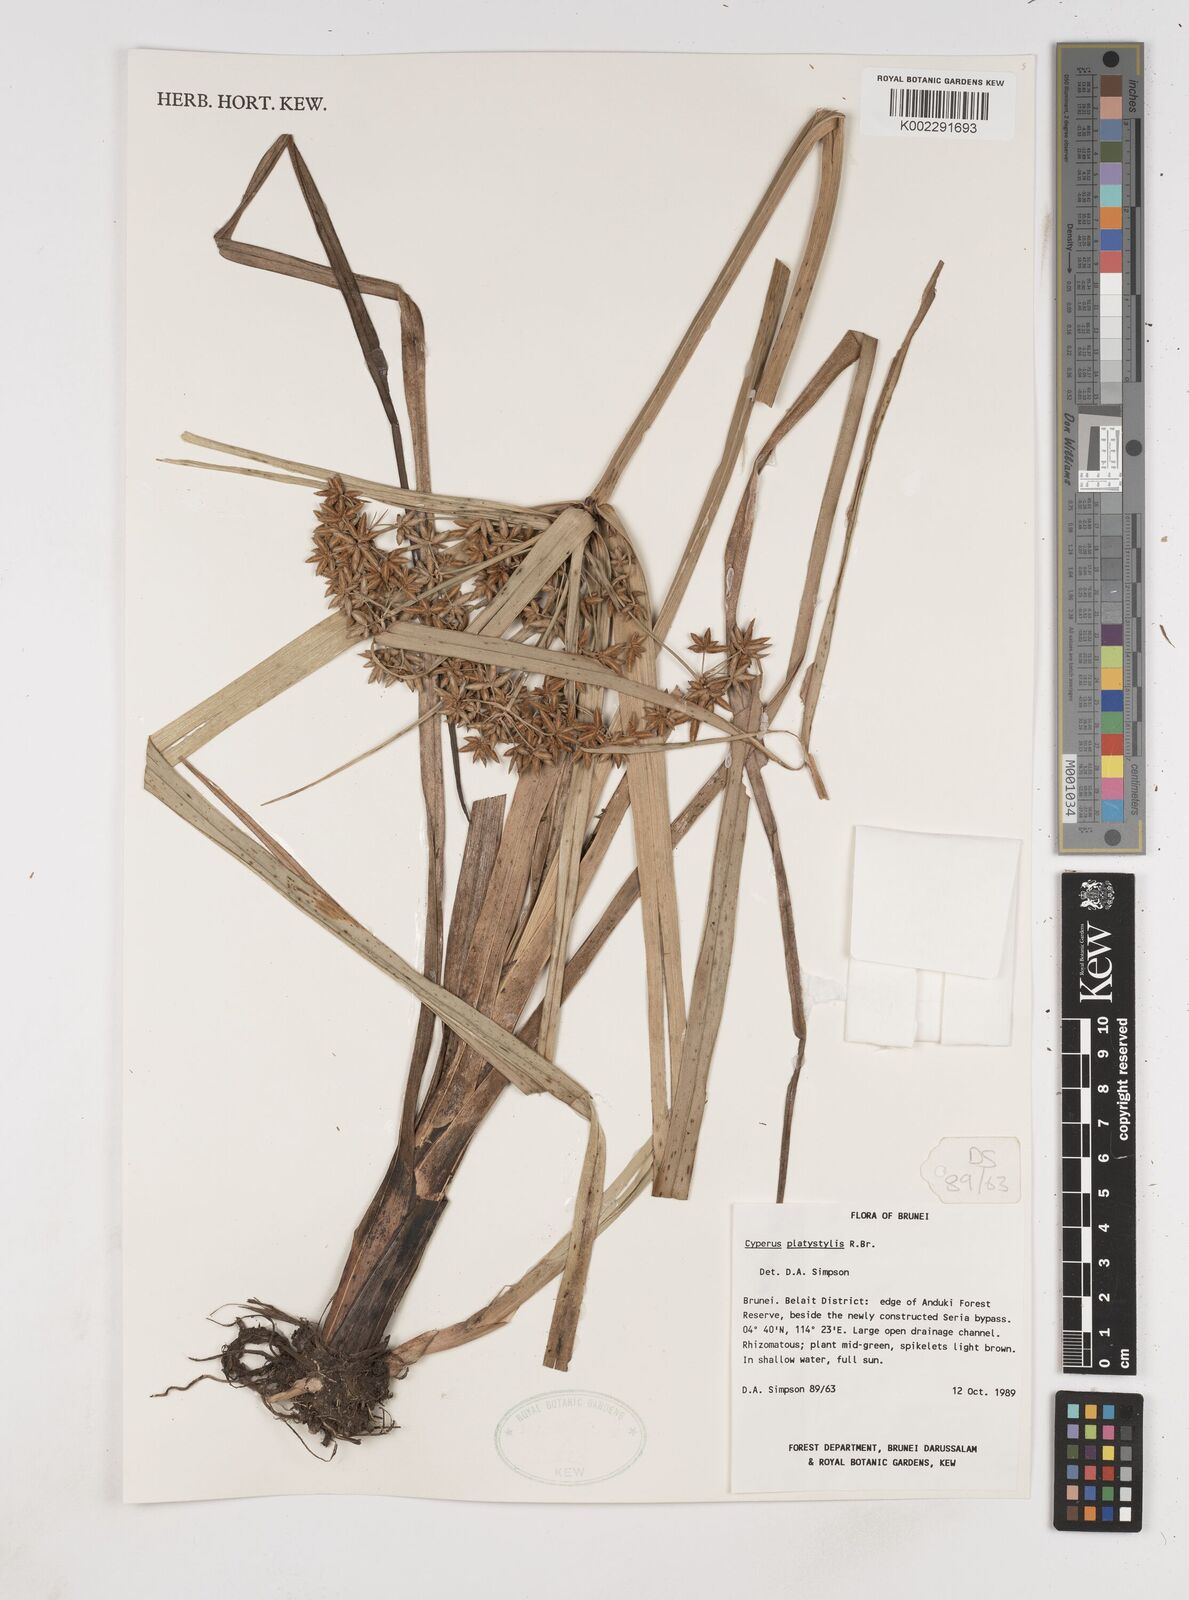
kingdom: Plantae
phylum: Tracheophyta
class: Liliopsida
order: Poales
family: Cyperaceae
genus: Cyperus
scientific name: Cyperus platystylis
